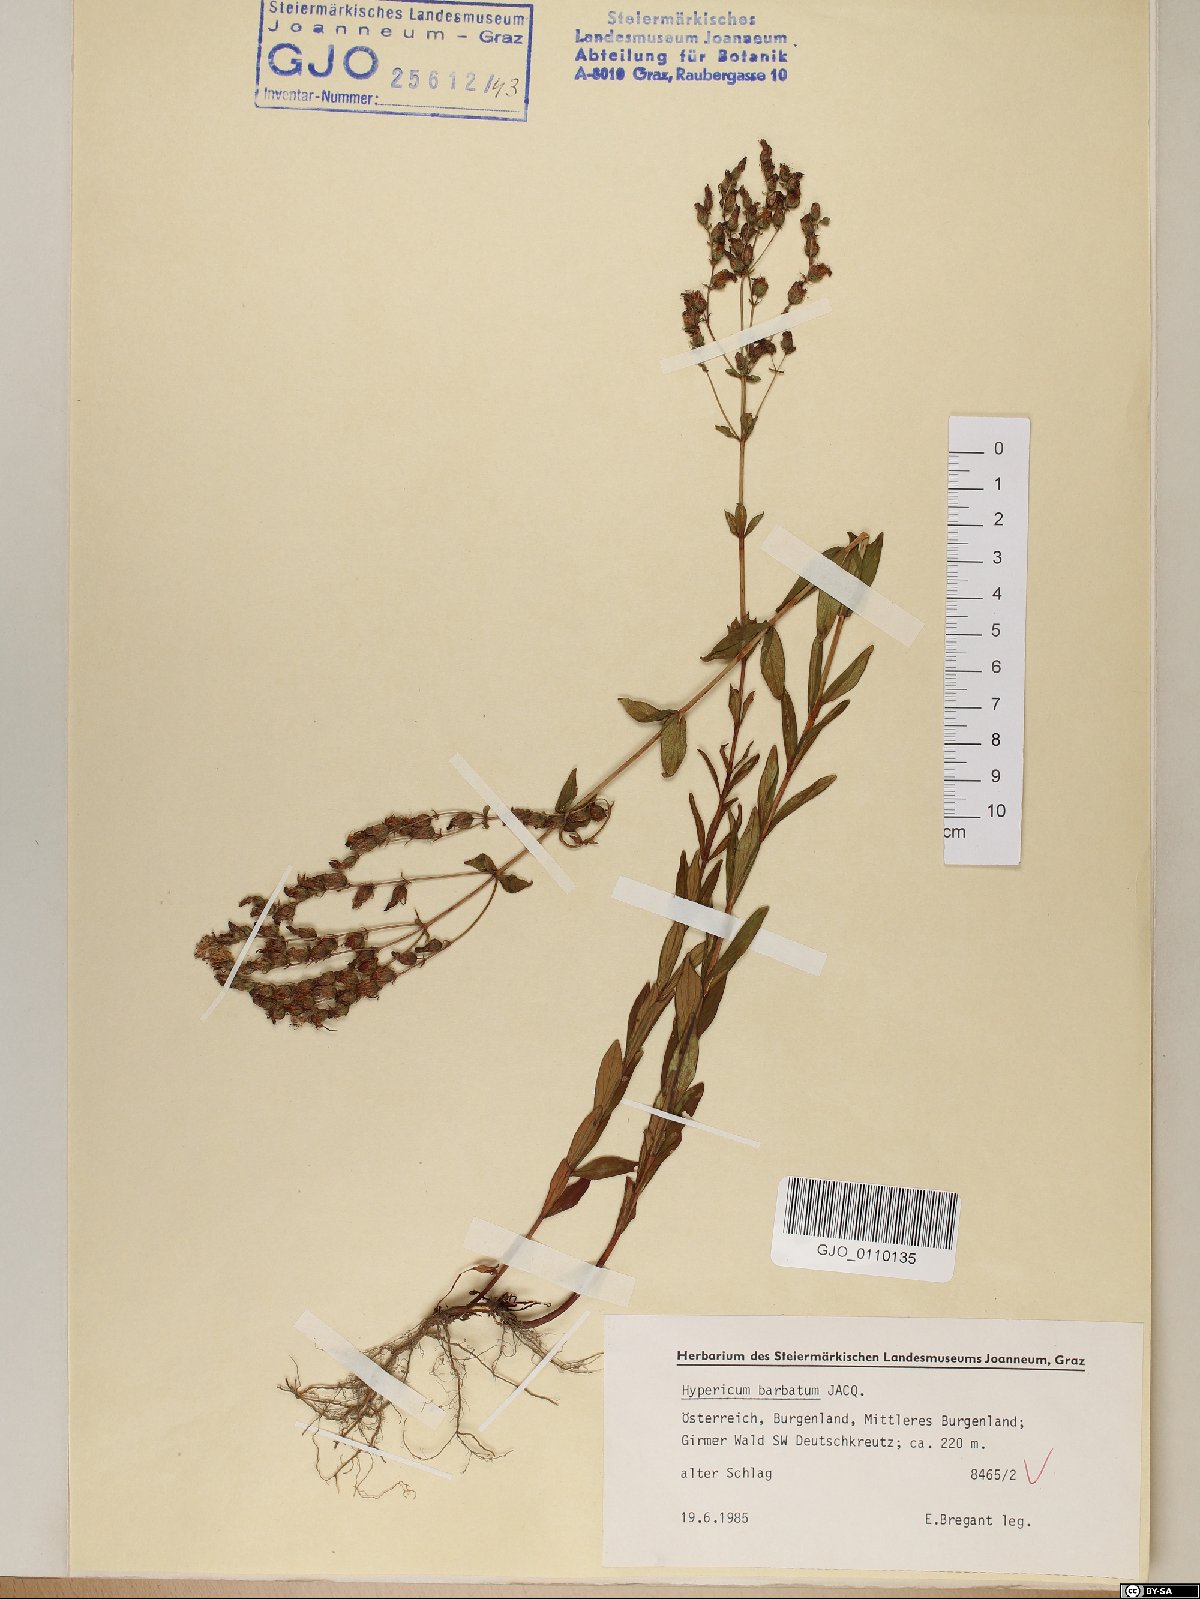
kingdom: Plantae
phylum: Tracheophyta
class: Magnoliopsida
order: Malpighiales
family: Hypericaceae
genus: Hypericum
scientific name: Hypericum barbatum
